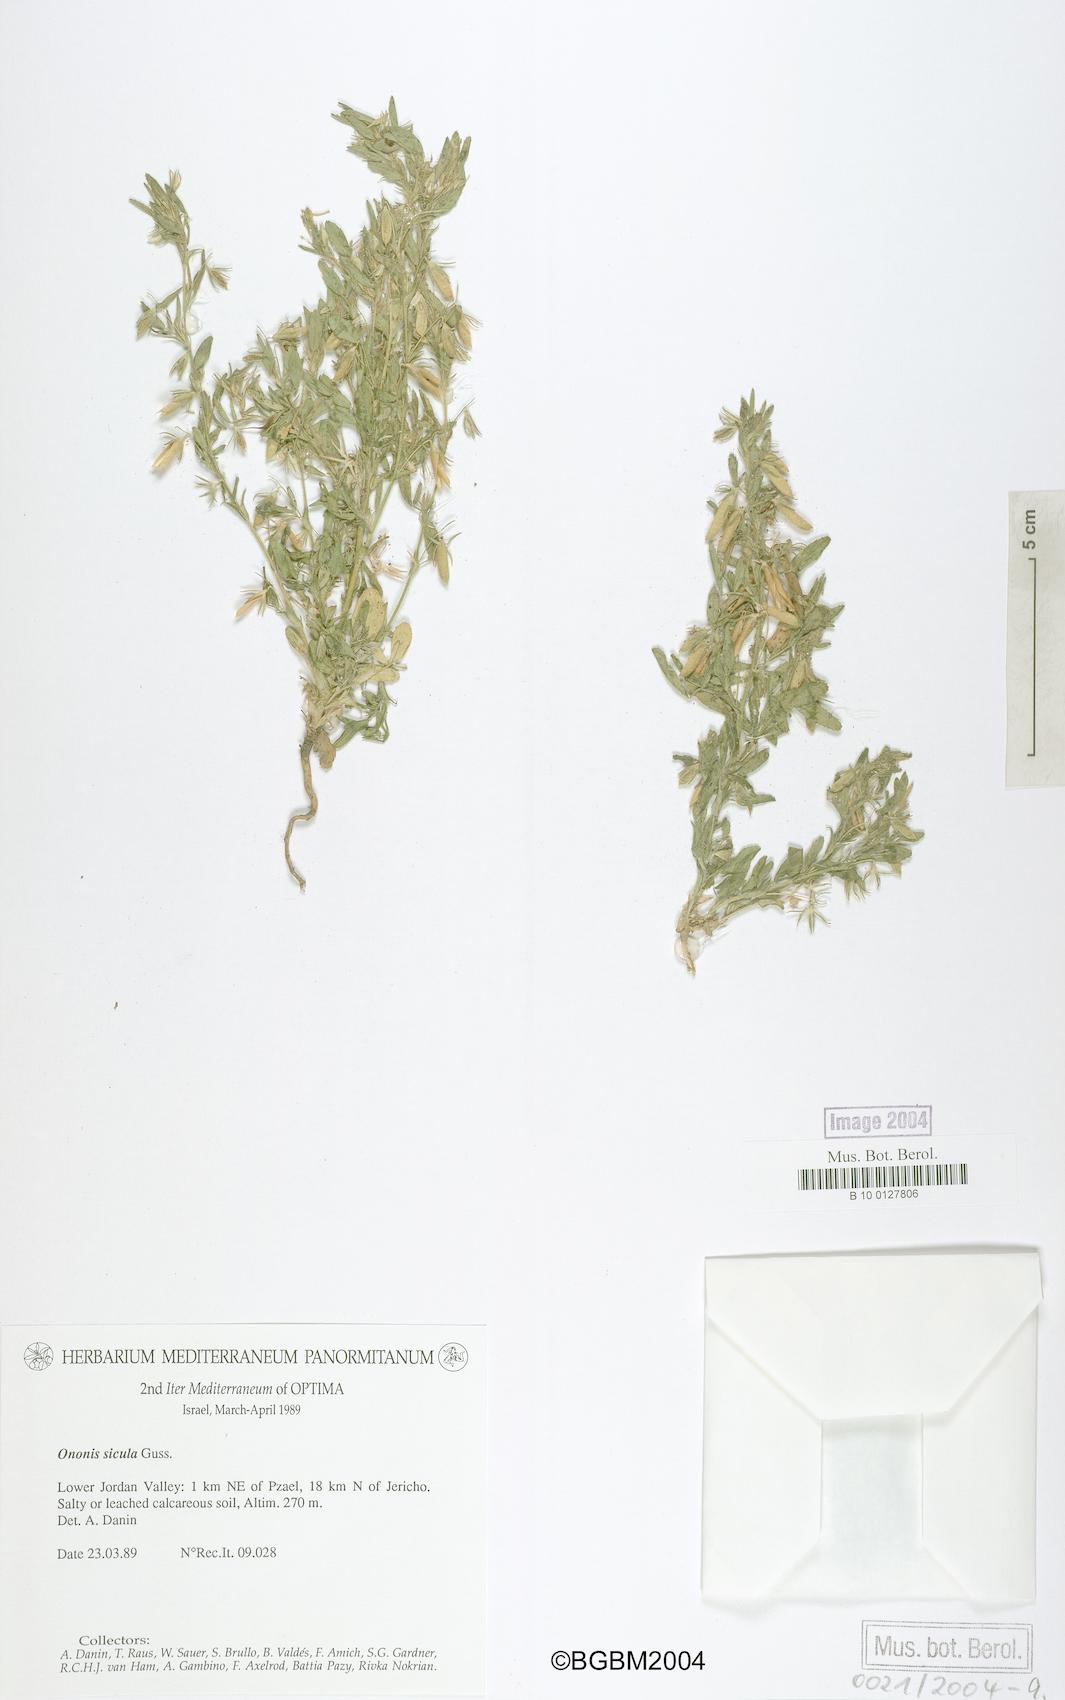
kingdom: Plantae
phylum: Tracheophyta
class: Magnoliopsida
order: Fabales
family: Fabaceae
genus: Ononis
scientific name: Ononis sicula
